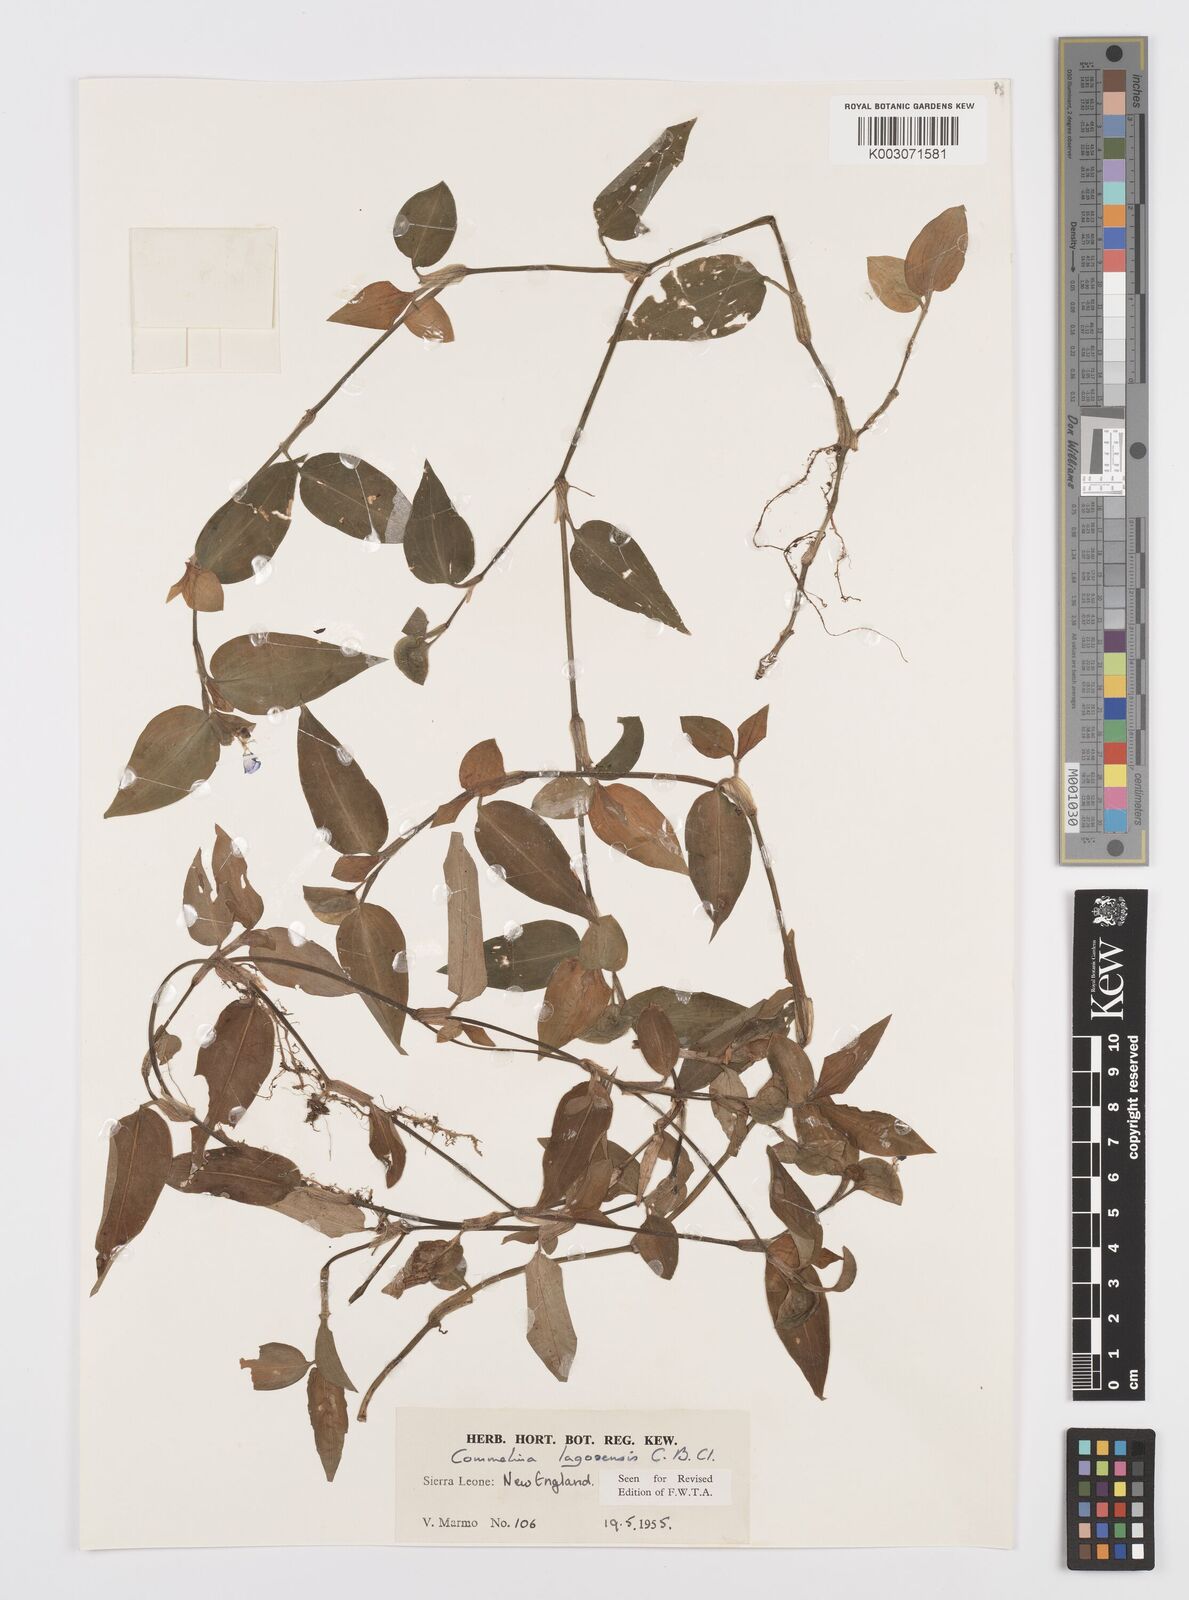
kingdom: Plantae
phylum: Tracheophyta
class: Liliopsida
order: Commelinales
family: Commelinaceae
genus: Commelina
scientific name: Commelina bracteosa
